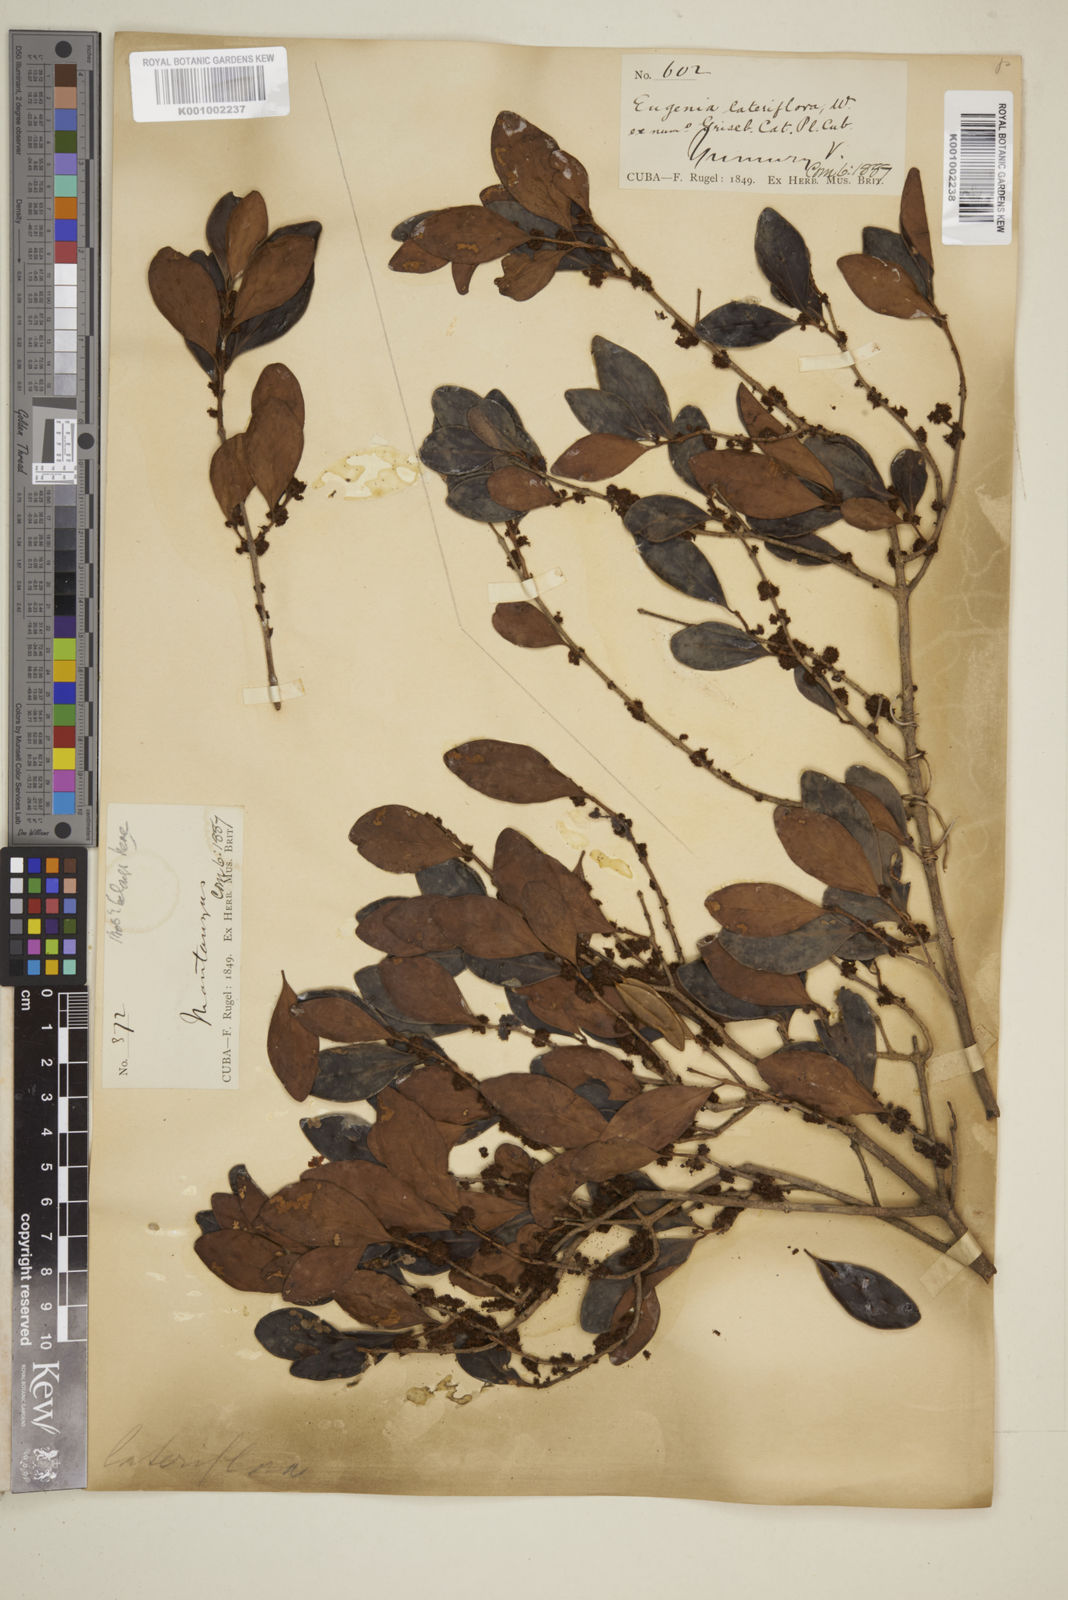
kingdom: Plantae
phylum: Tracheophyta
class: Magnoliopsida
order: Myrtales
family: Myrtaceae
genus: Eugenia
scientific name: Eugenia sessiliflora
